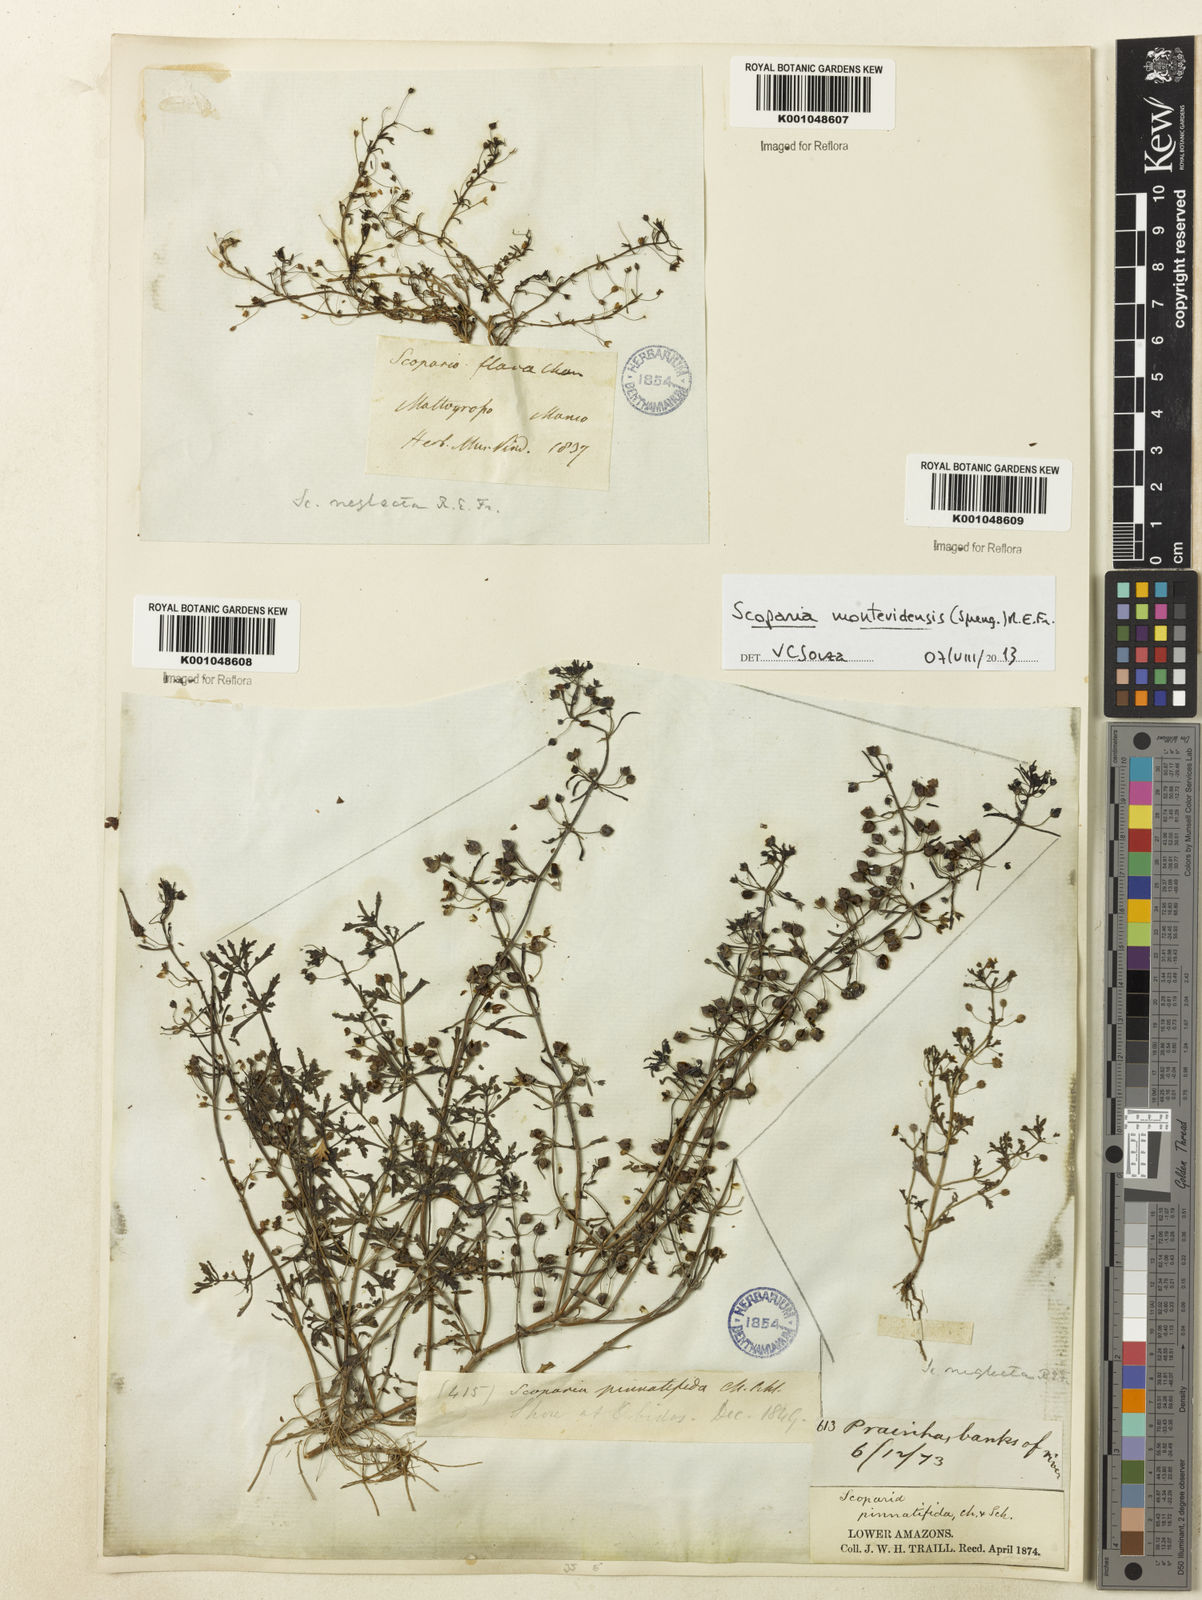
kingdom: Plantae
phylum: Tracheophyta
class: Magnoliopsida
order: Lamiales
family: Plantaginaceae
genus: Scoparia
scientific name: Scoparia montevidensis
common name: Broomwort
